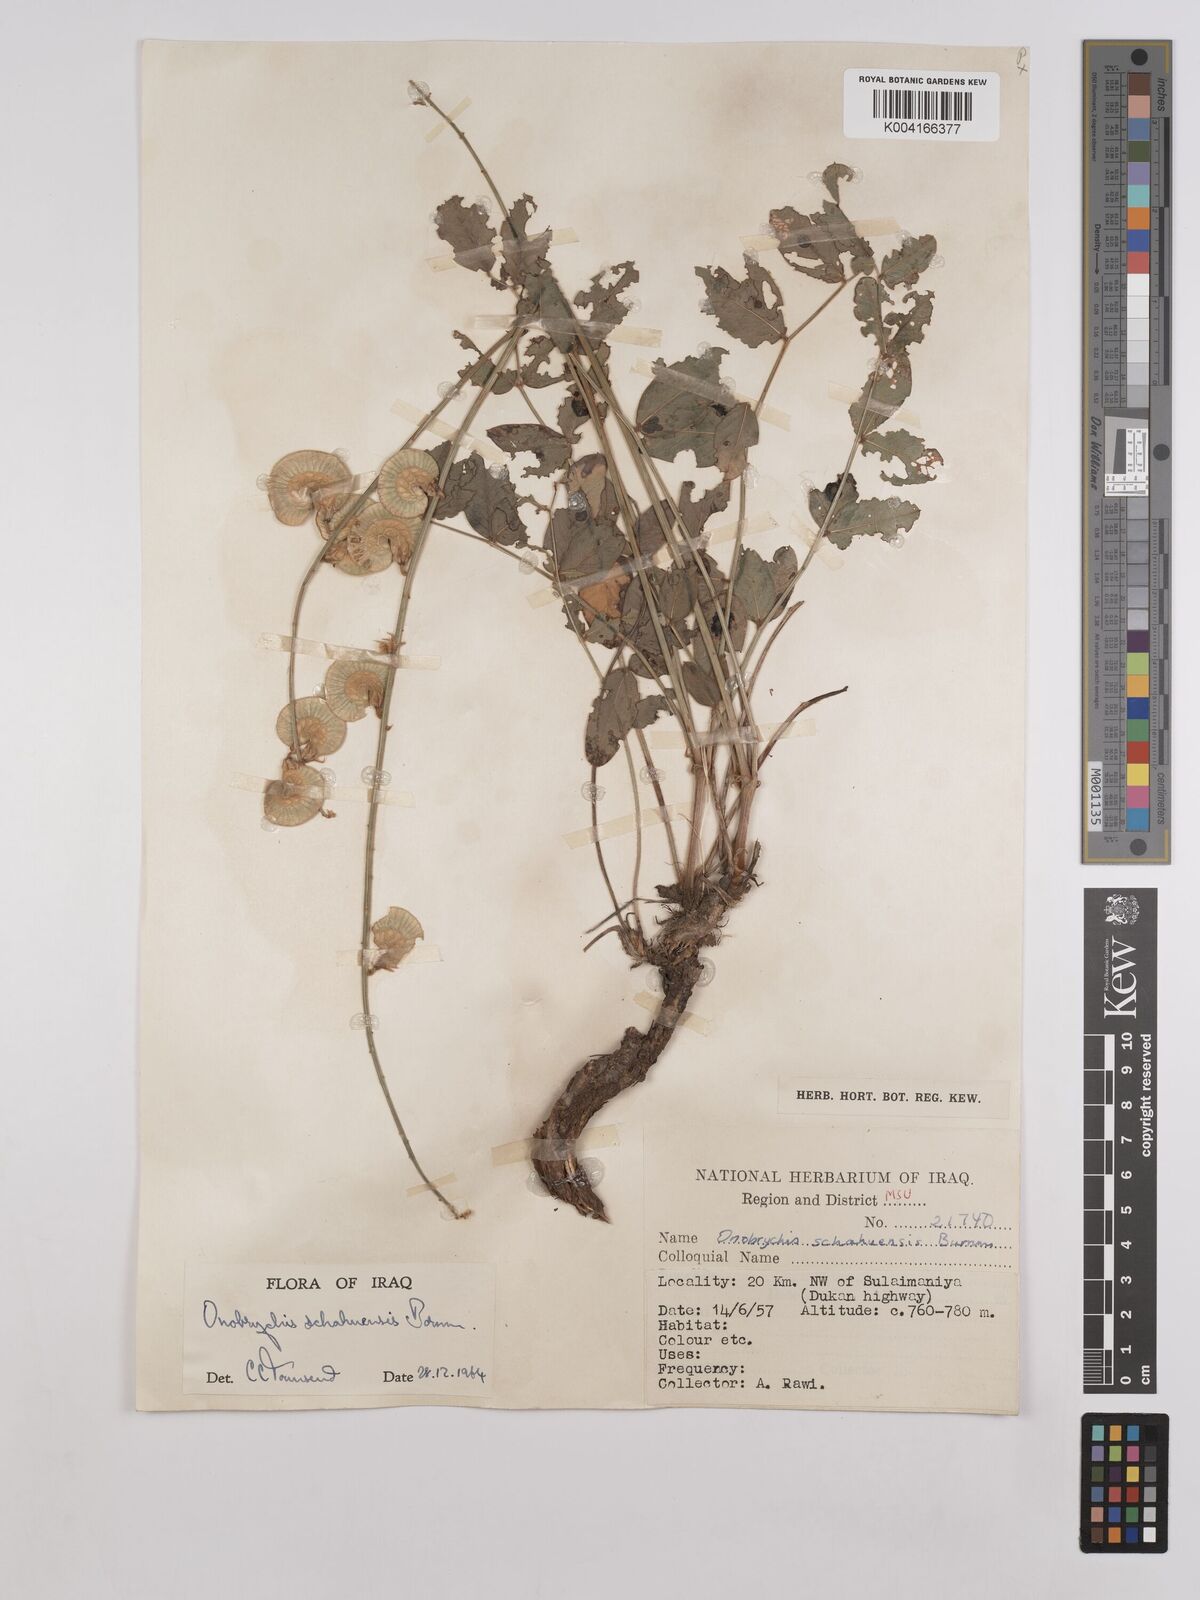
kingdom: Plantae
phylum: Tracheophyta
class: Magnoliopsida
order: Fabales
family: Fabaceae
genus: Onobrychis
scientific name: Onobrychis schahuensis
